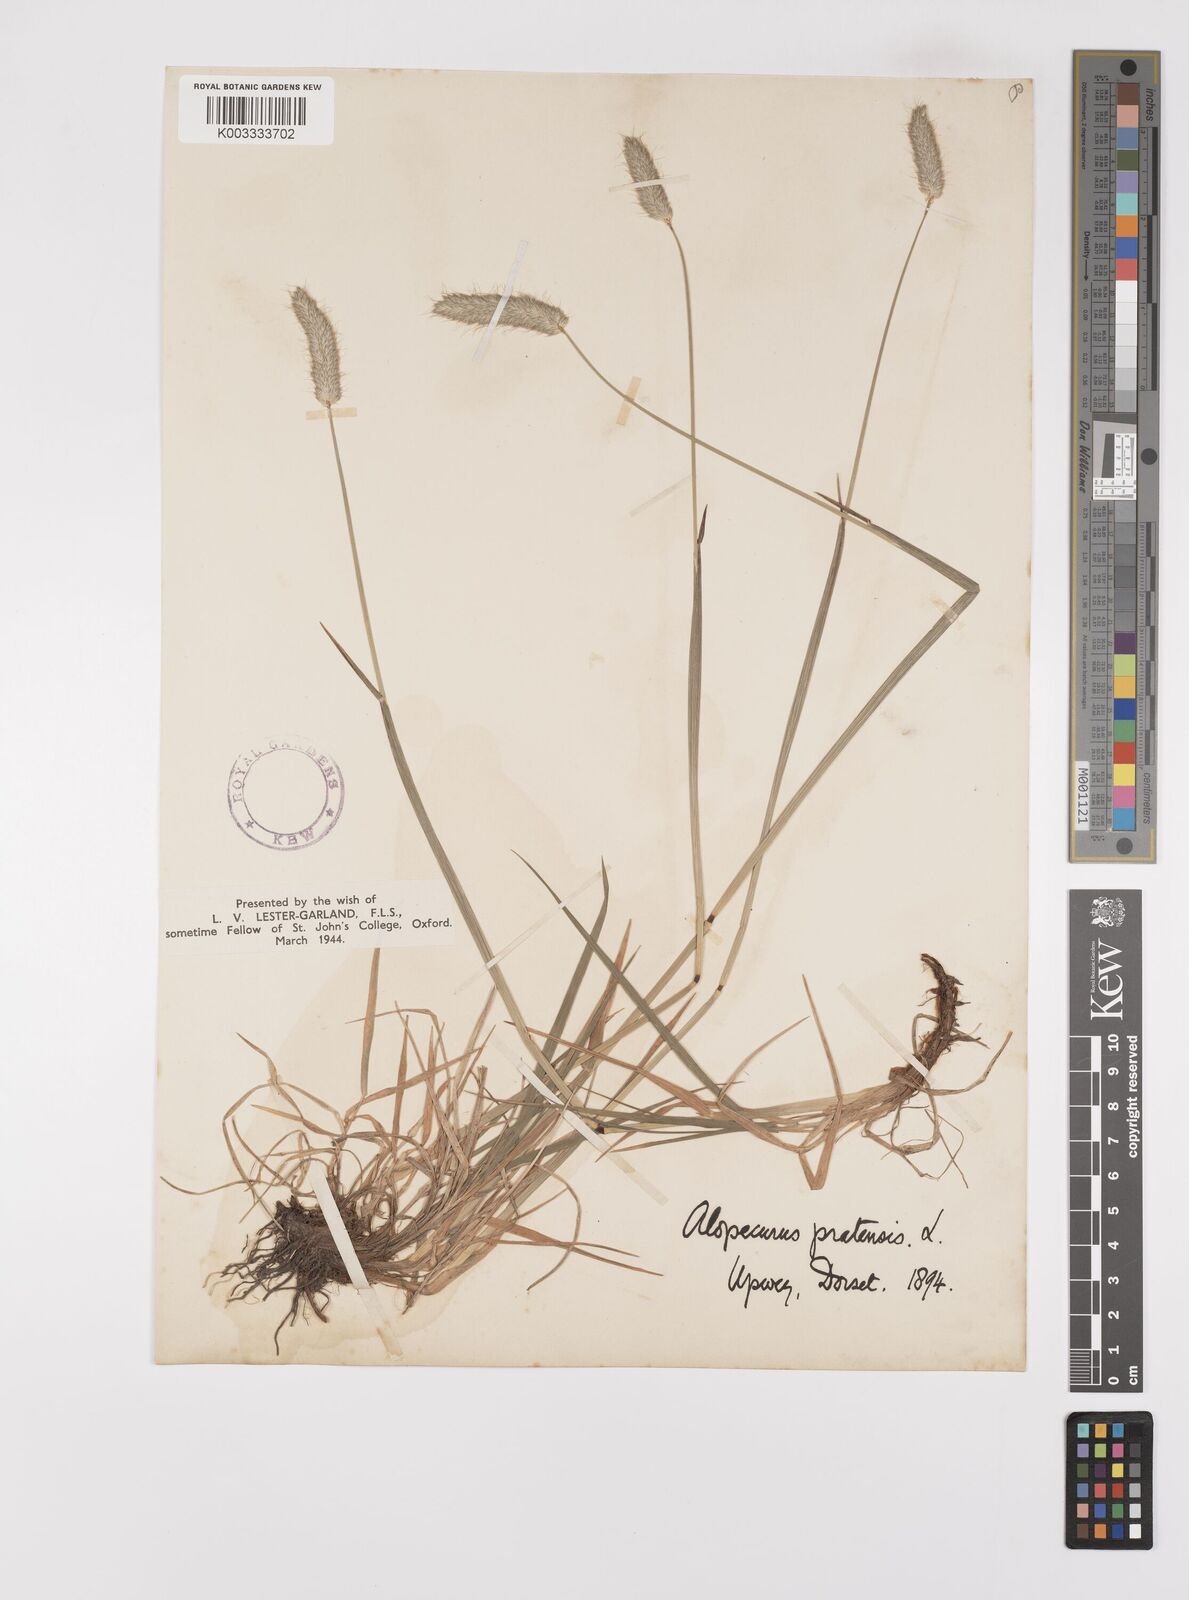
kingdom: Plantae
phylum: Tracheophyta
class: Liliopsida
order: Poales
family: Poaceae
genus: Alopecurus
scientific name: Alopecurus pratensis
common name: Meadow foxtail
